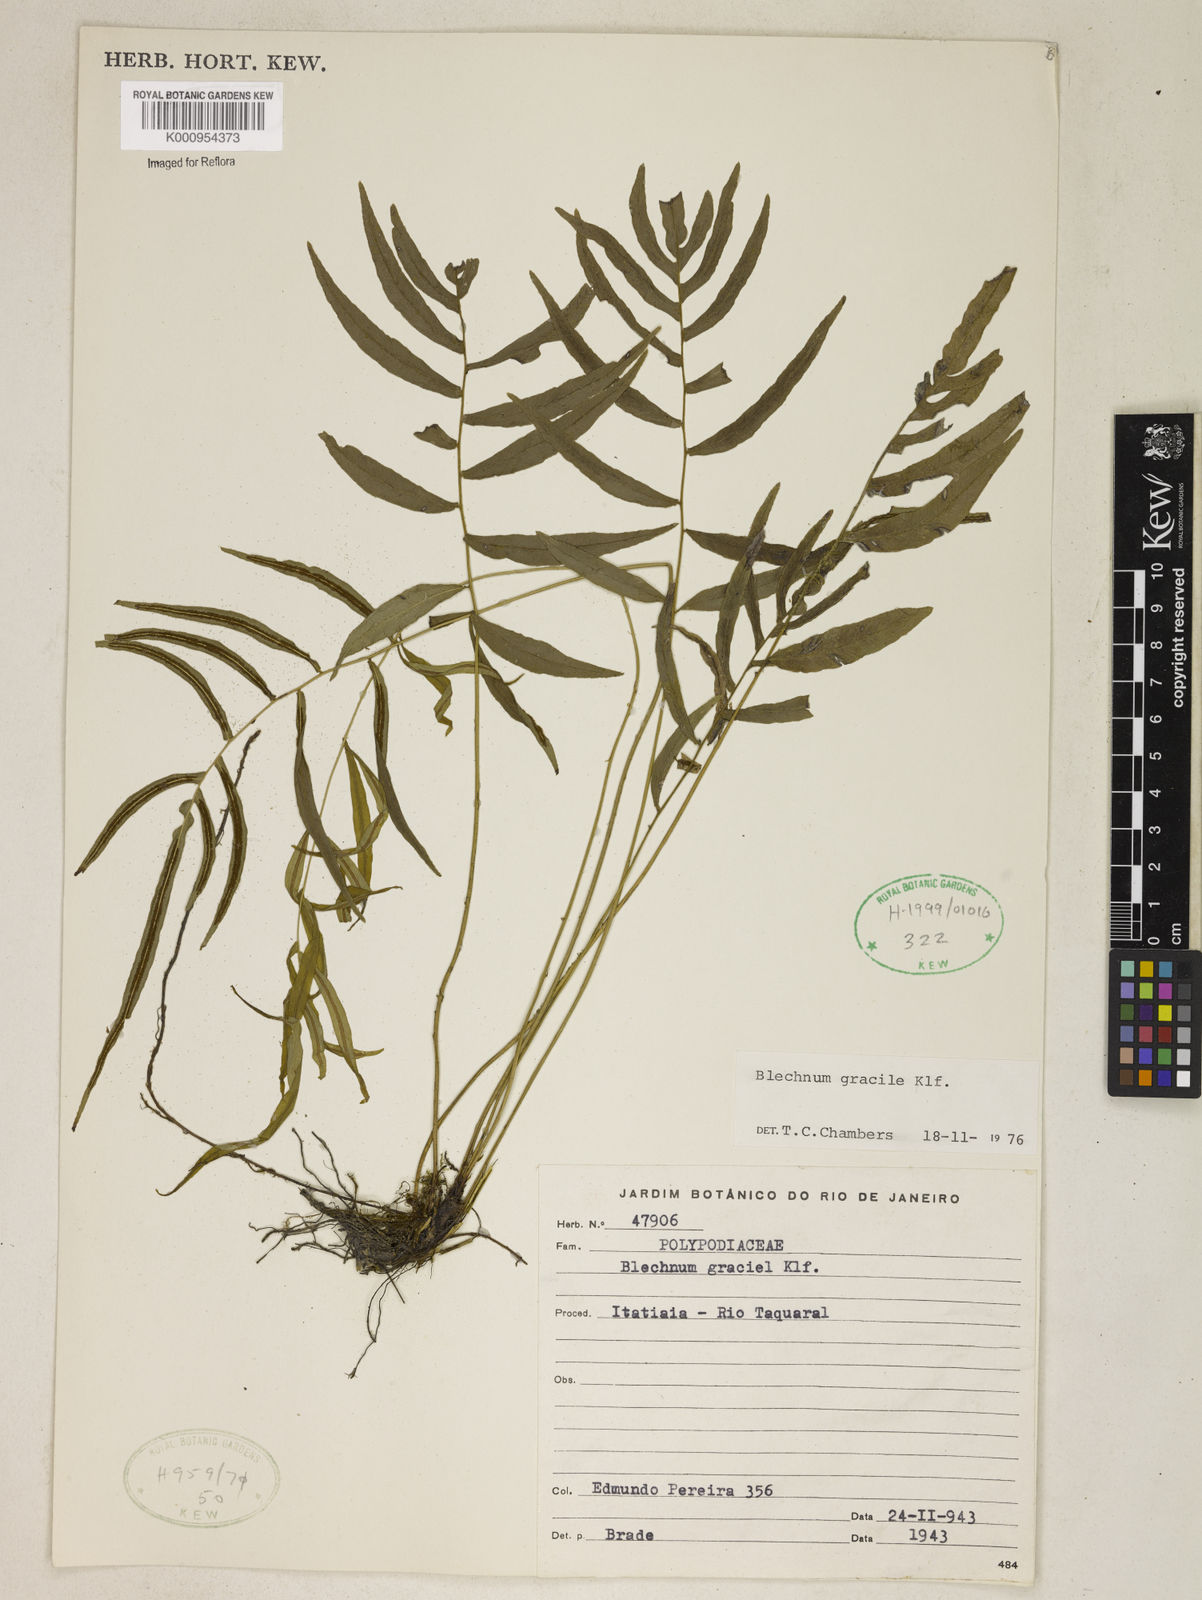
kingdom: Plantae
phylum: Tracheophyta
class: Polypodiopsida
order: Polypodiales
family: Blechnaceae
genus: Blechnum
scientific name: Blechnum gracile
